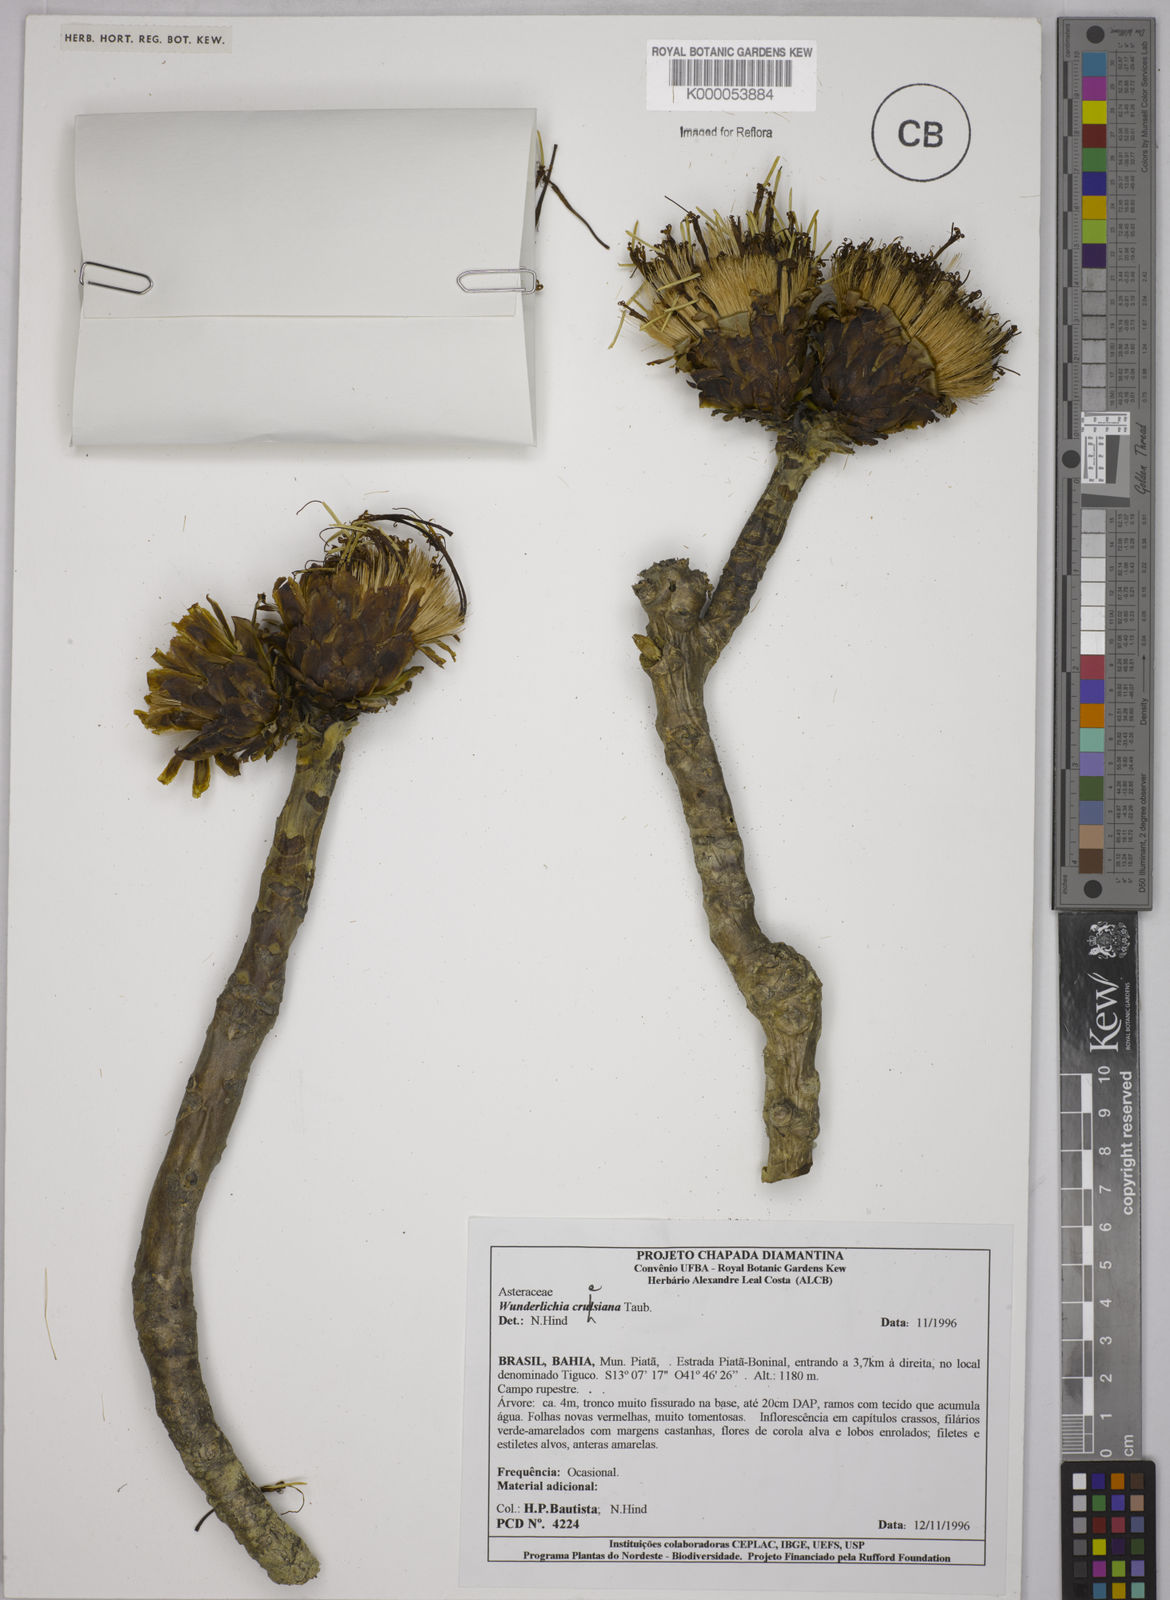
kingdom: Plantae
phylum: Tracheophyta
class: Magnoliopsida
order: Asterales
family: Asteraceae
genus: Wunderlichia
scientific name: Wunderlichia
